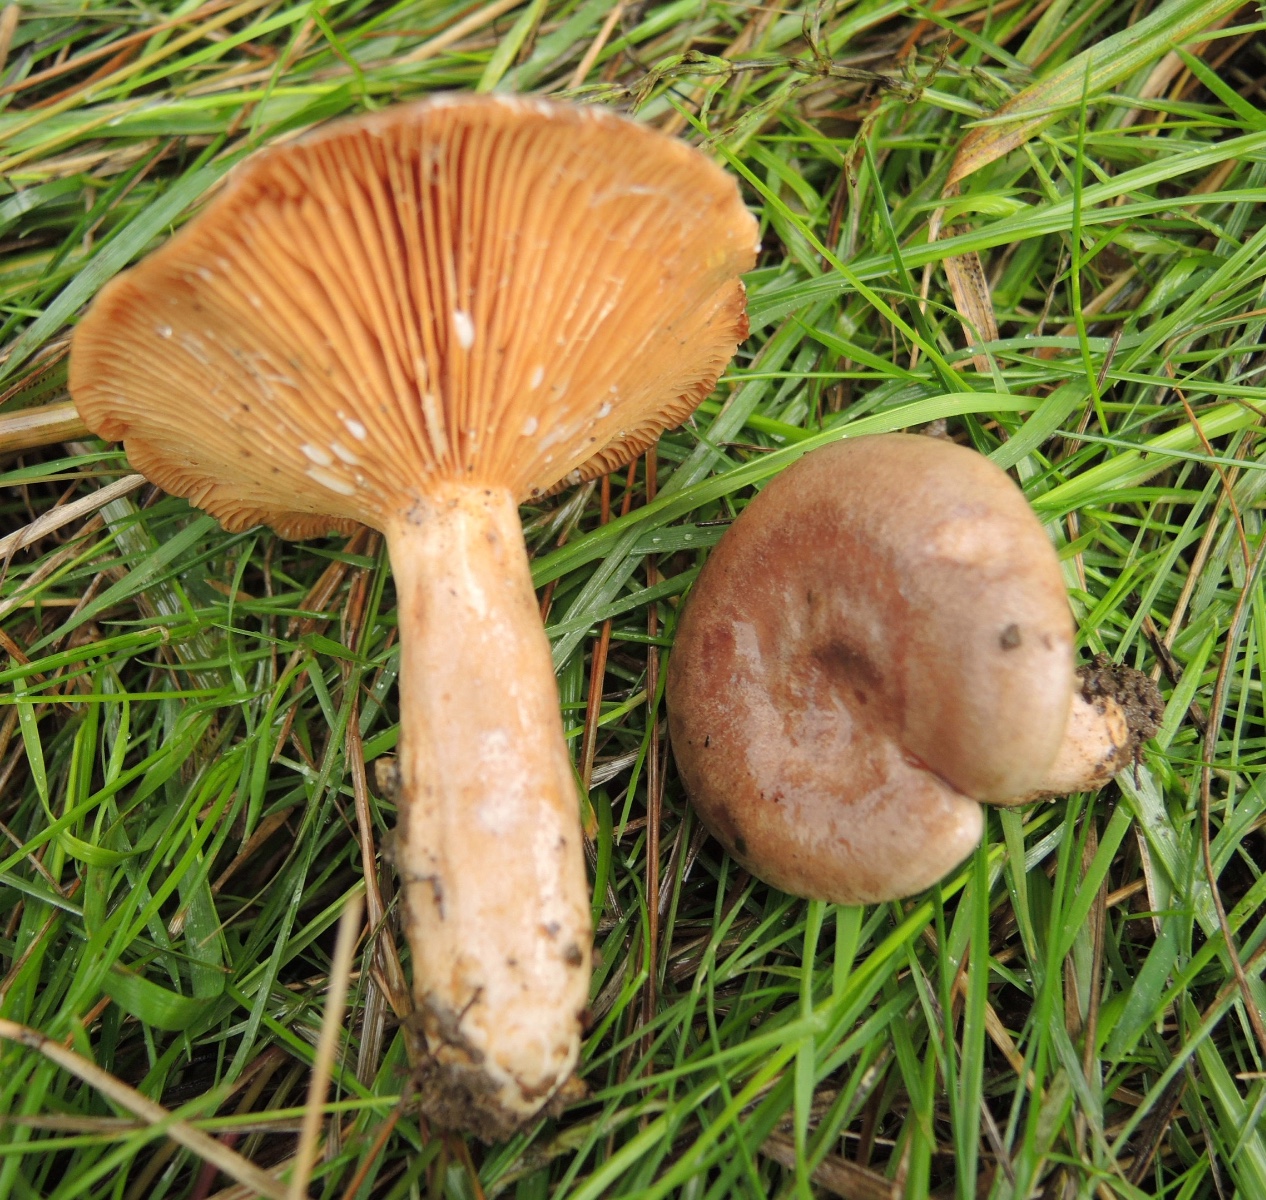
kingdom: Fungi
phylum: Basidiomycota
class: Agaricomycetes
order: Russulales
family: Russulaceae
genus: Lactarius
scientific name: Lactarius pyrogalus
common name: hassel-mælkehat
